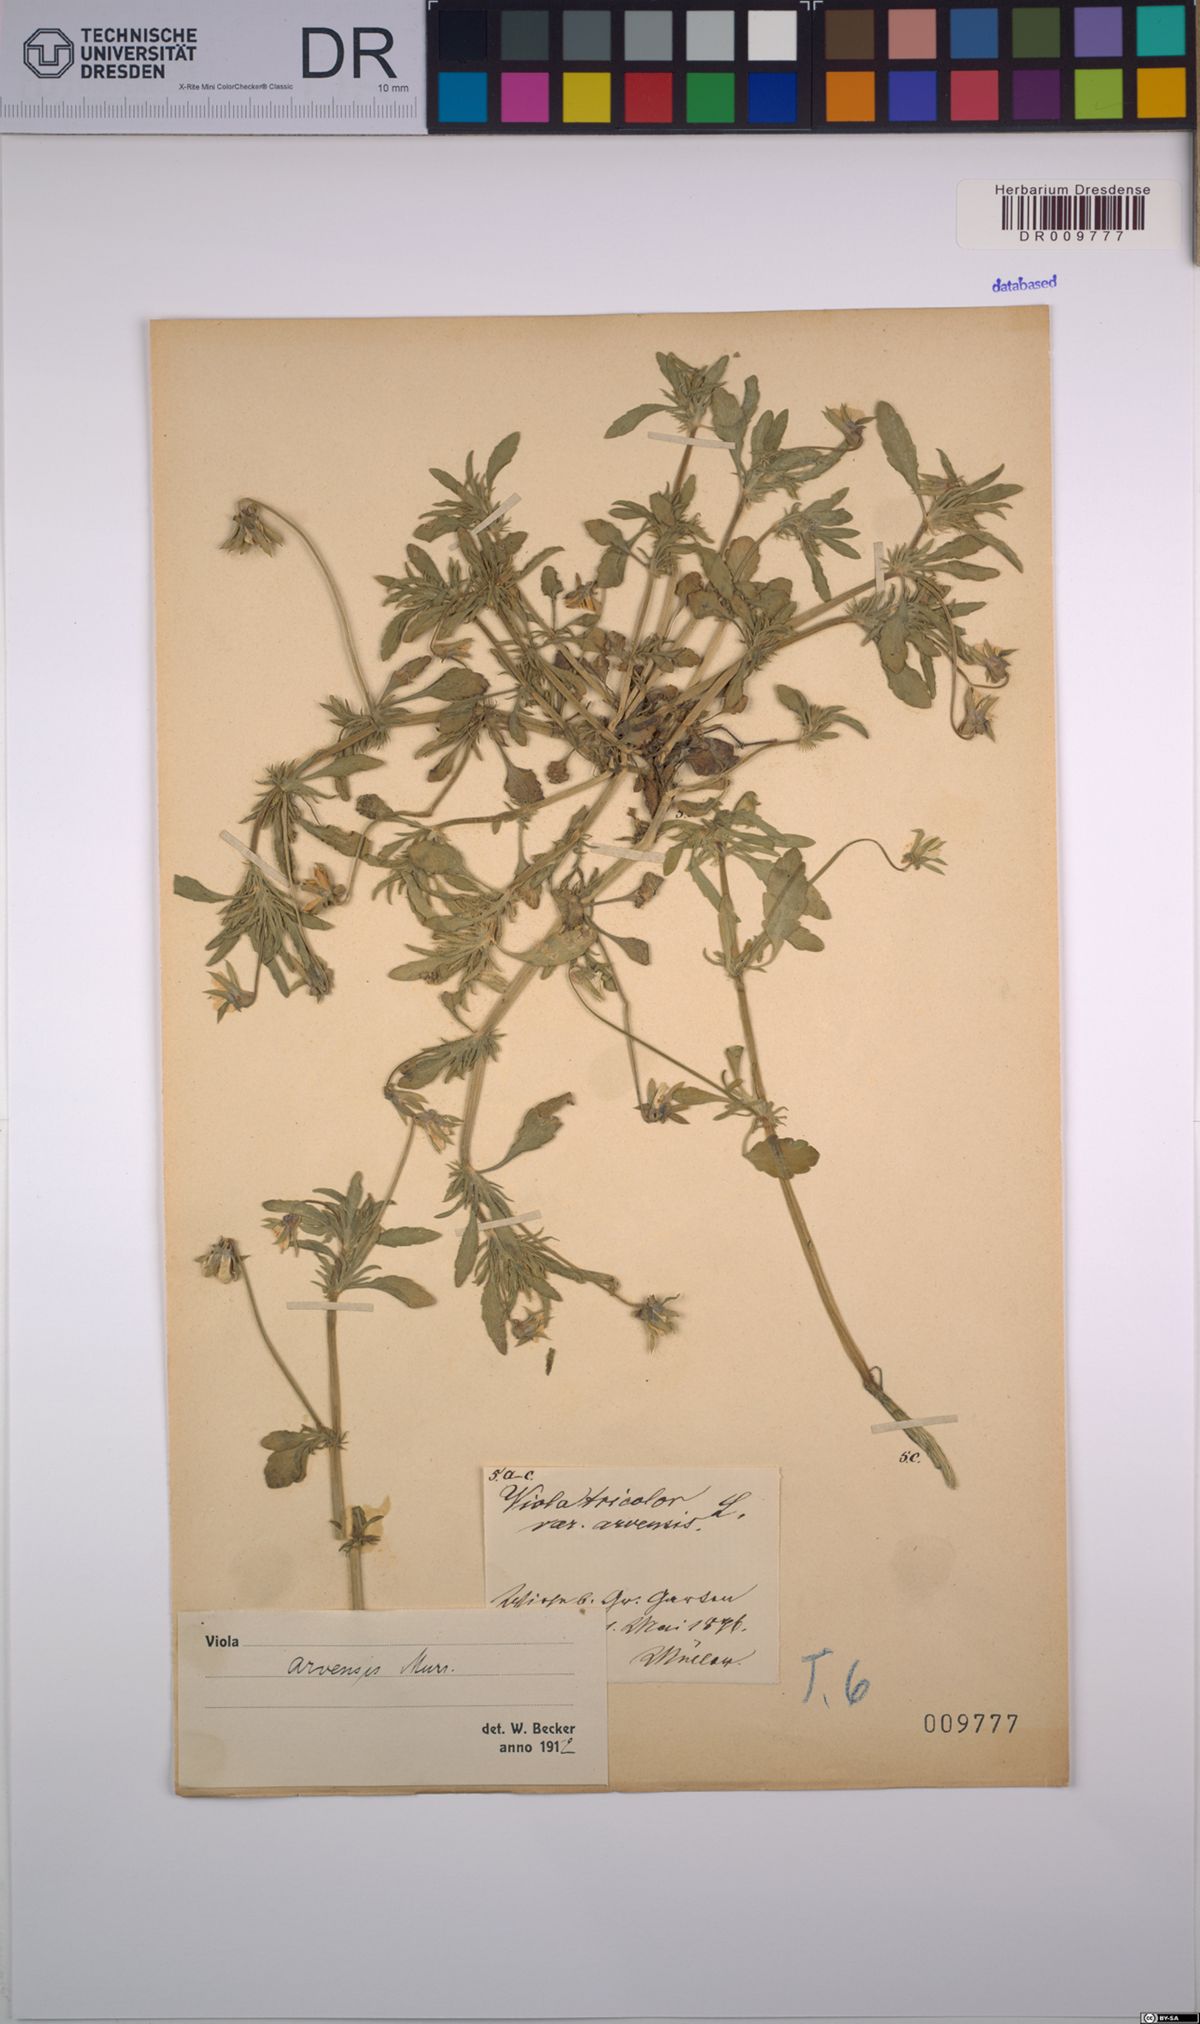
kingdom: Plantae
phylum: Tracheophyta
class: Magnoliopsida
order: Malpighiales
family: Violaceae
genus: Viola
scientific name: Viola arvensis
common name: Field pansy
